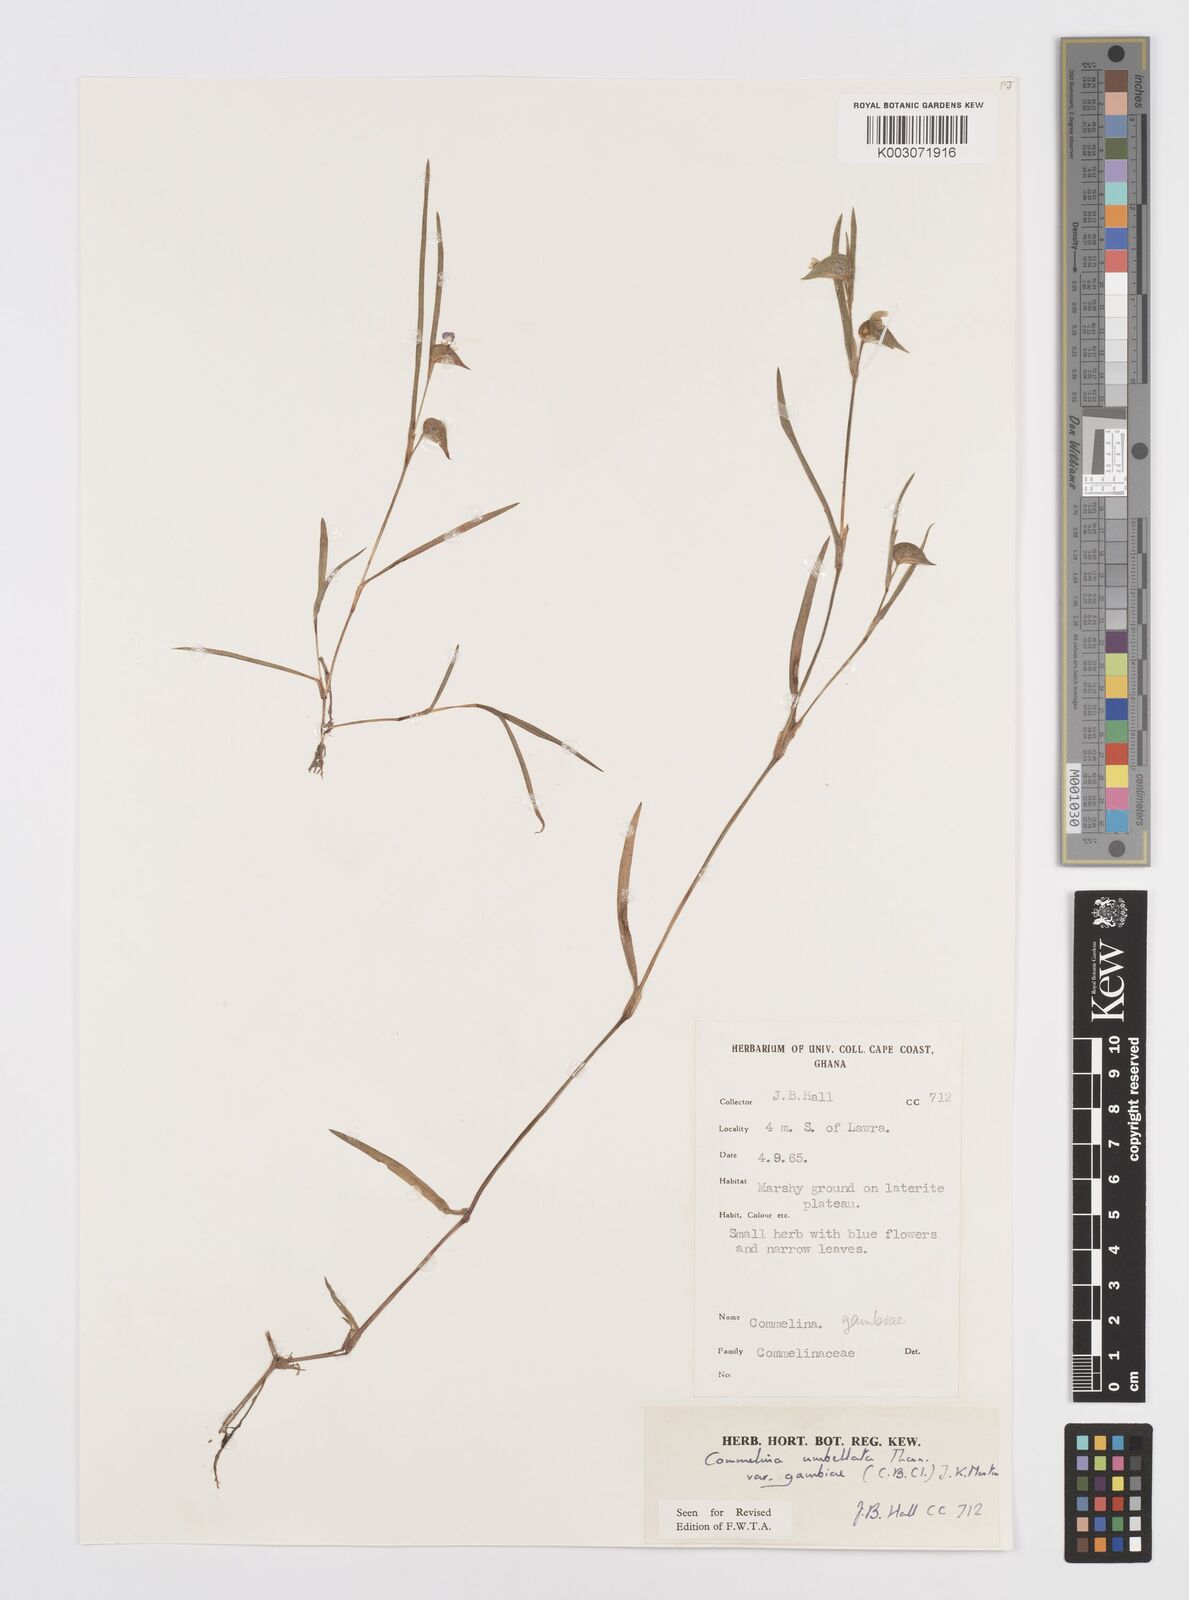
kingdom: Plantae
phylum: Tracheophyta
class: Liliopsida
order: Commelinales
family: Commelinaceae
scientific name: Commelinaceae
